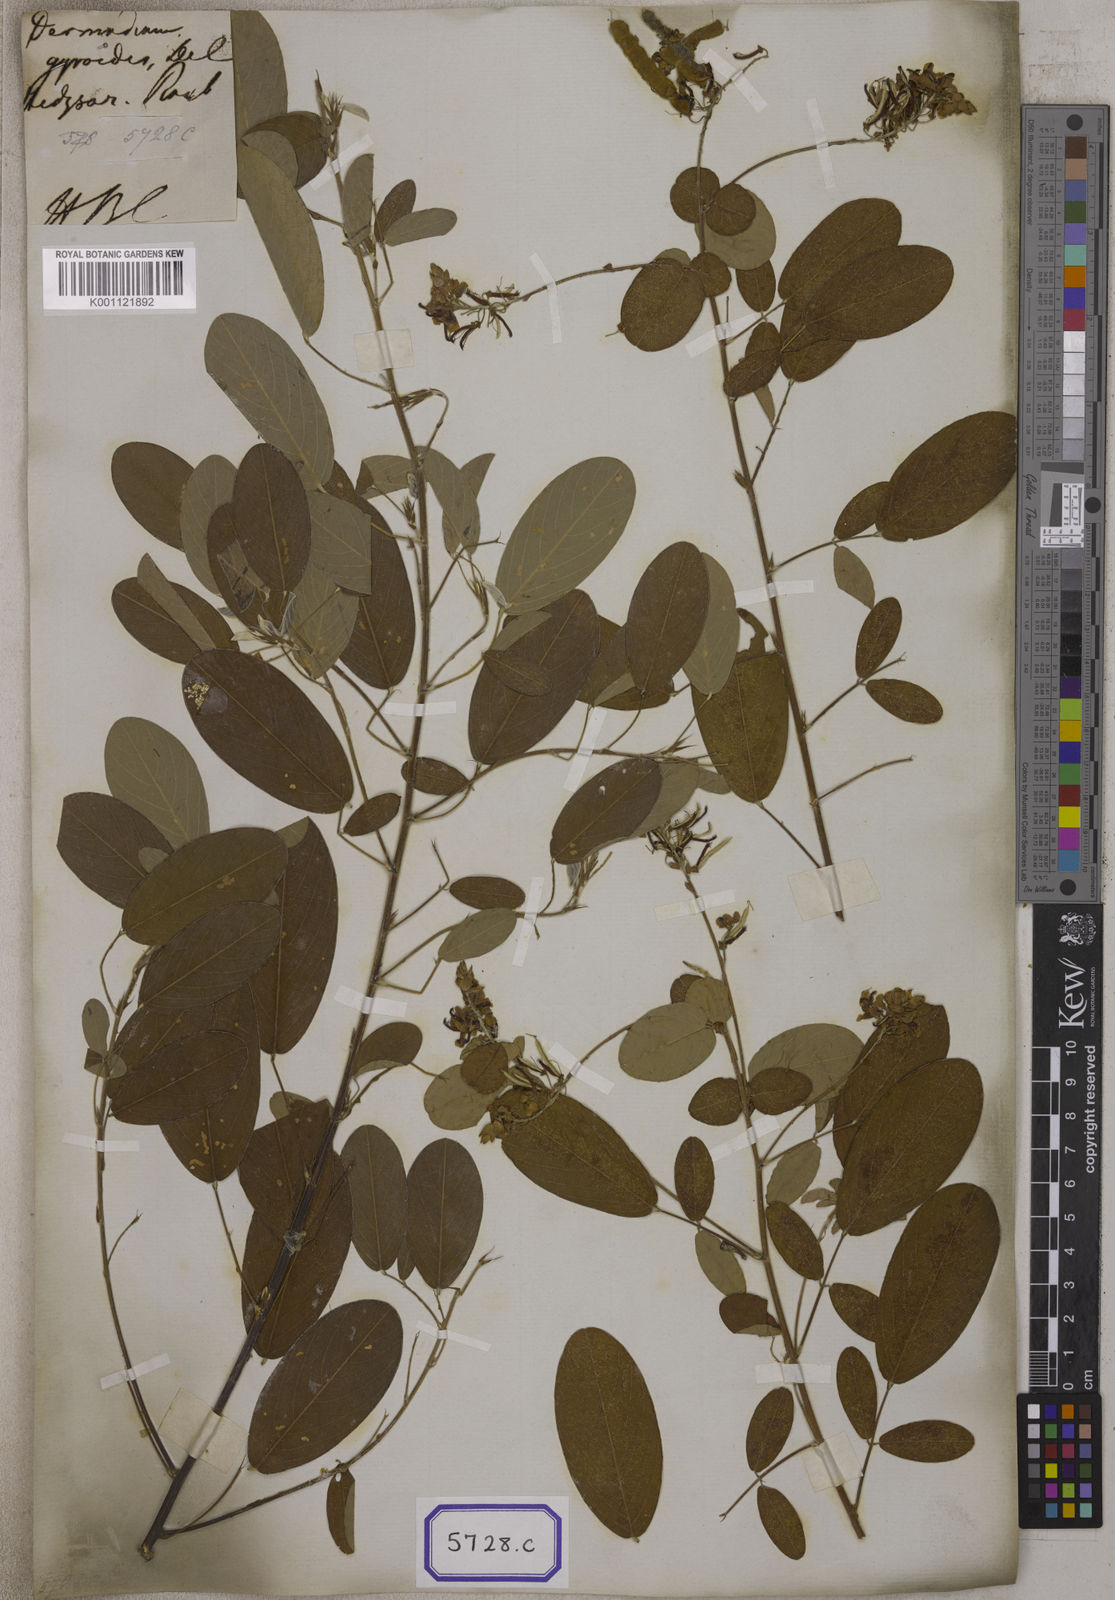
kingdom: Plantae
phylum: Tracheophyta
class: Magnoliopsida
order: Fabales
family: Fabaceae
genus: Codariocalyx
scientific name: Codariocalyx gyroides
